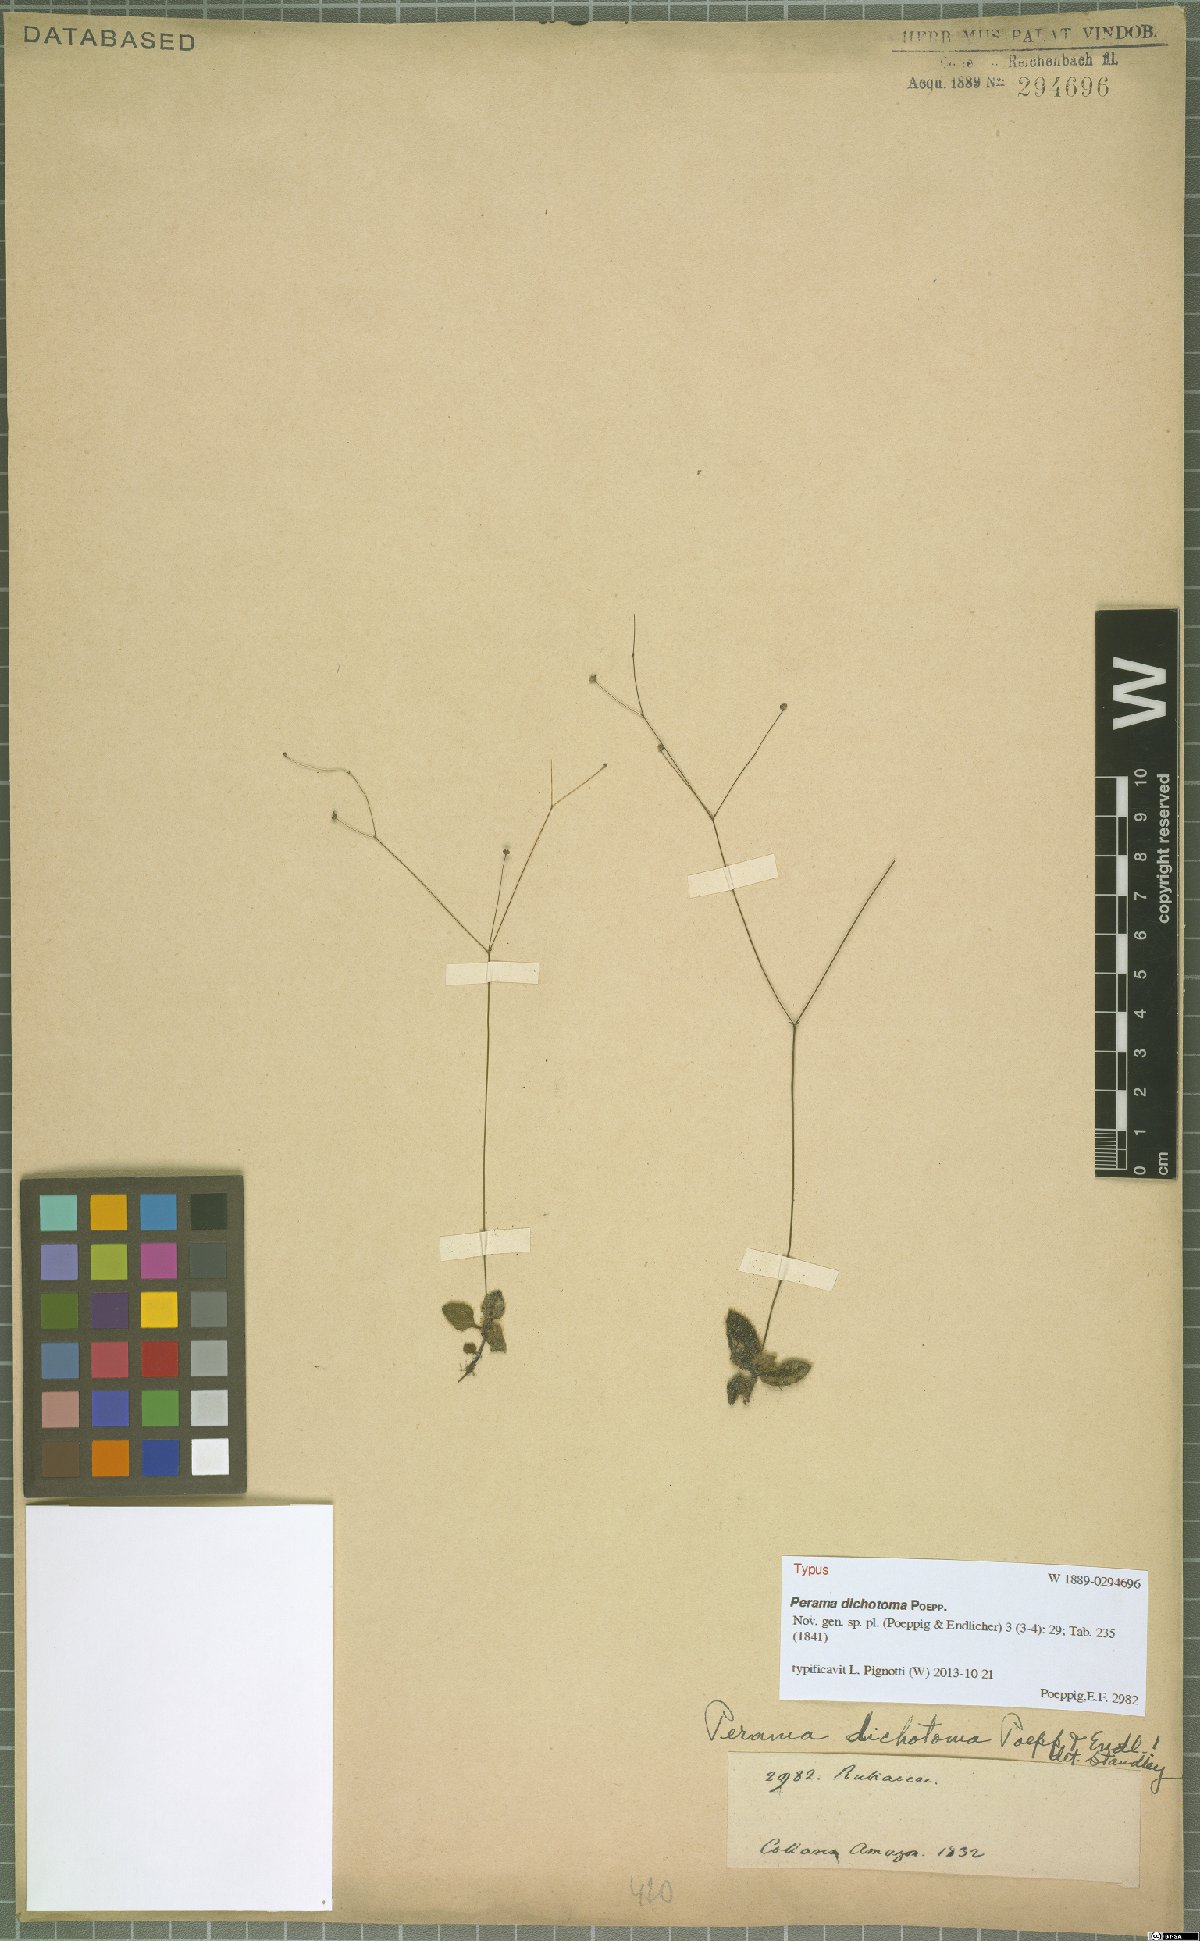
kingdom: Plantae
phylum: Tracheophyta
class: Magnoliopsida
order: Gentianales
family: Rubiaceae
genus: Perama
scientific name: Perama dichotoma
